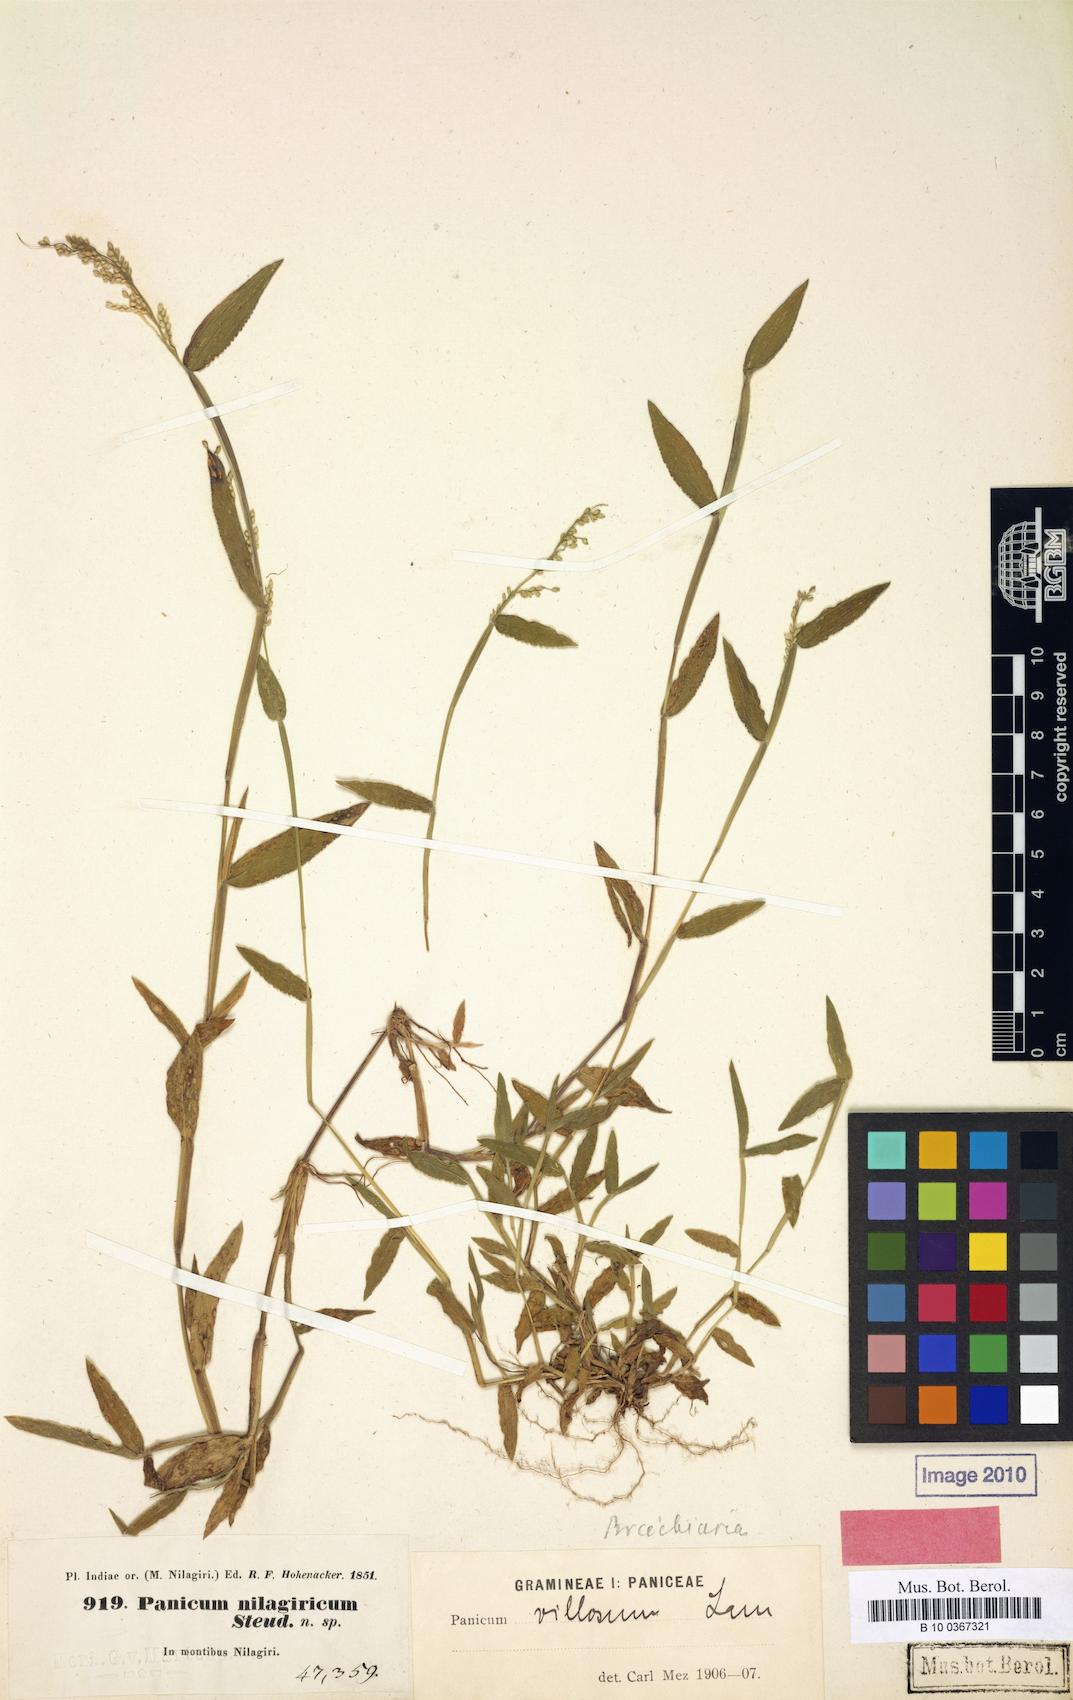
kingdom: Plantae
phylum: Tracheophyta
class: Liliopsida
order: Poales
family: Poaceae
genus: Urochloa
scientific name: Urochloa reptans
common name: Sprawling signalgrass
